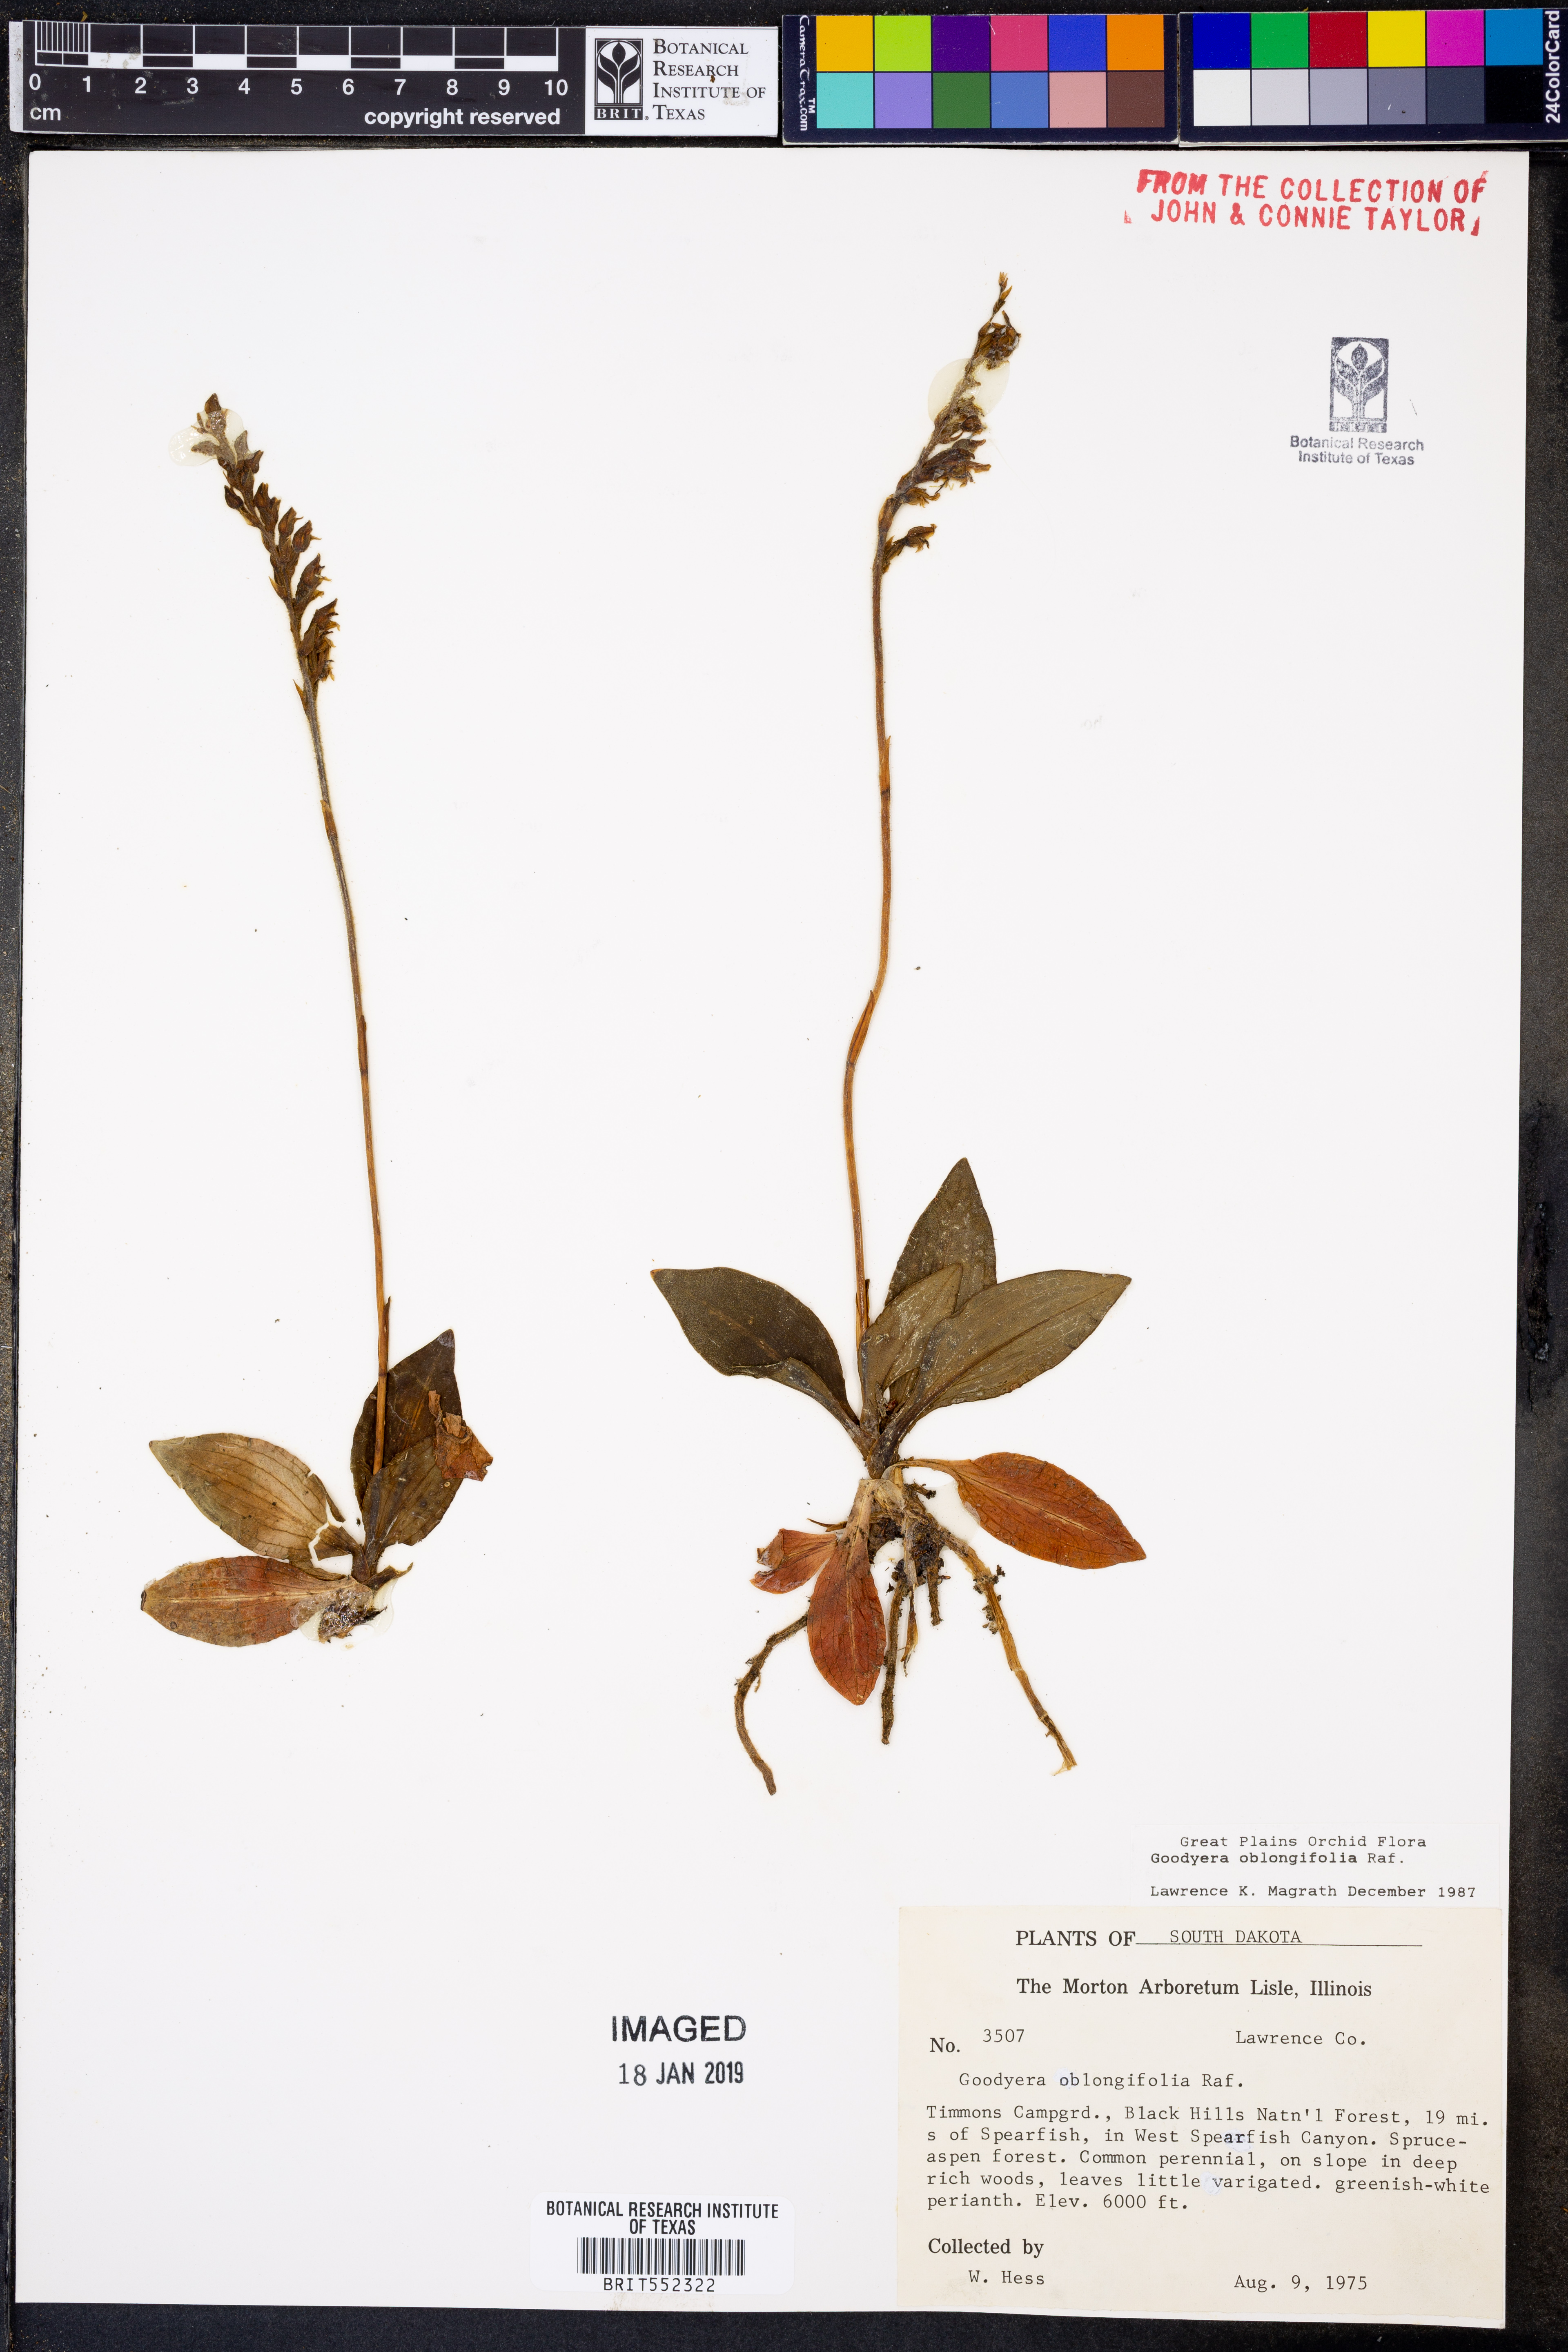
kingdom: Plantae
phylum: Tracheophyta
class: Liliopsida
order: Asparagales
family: Orchidaceae
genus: Goodyera
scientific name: Goodyera oblongifolia
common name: Giant rattlesnake-plantain
